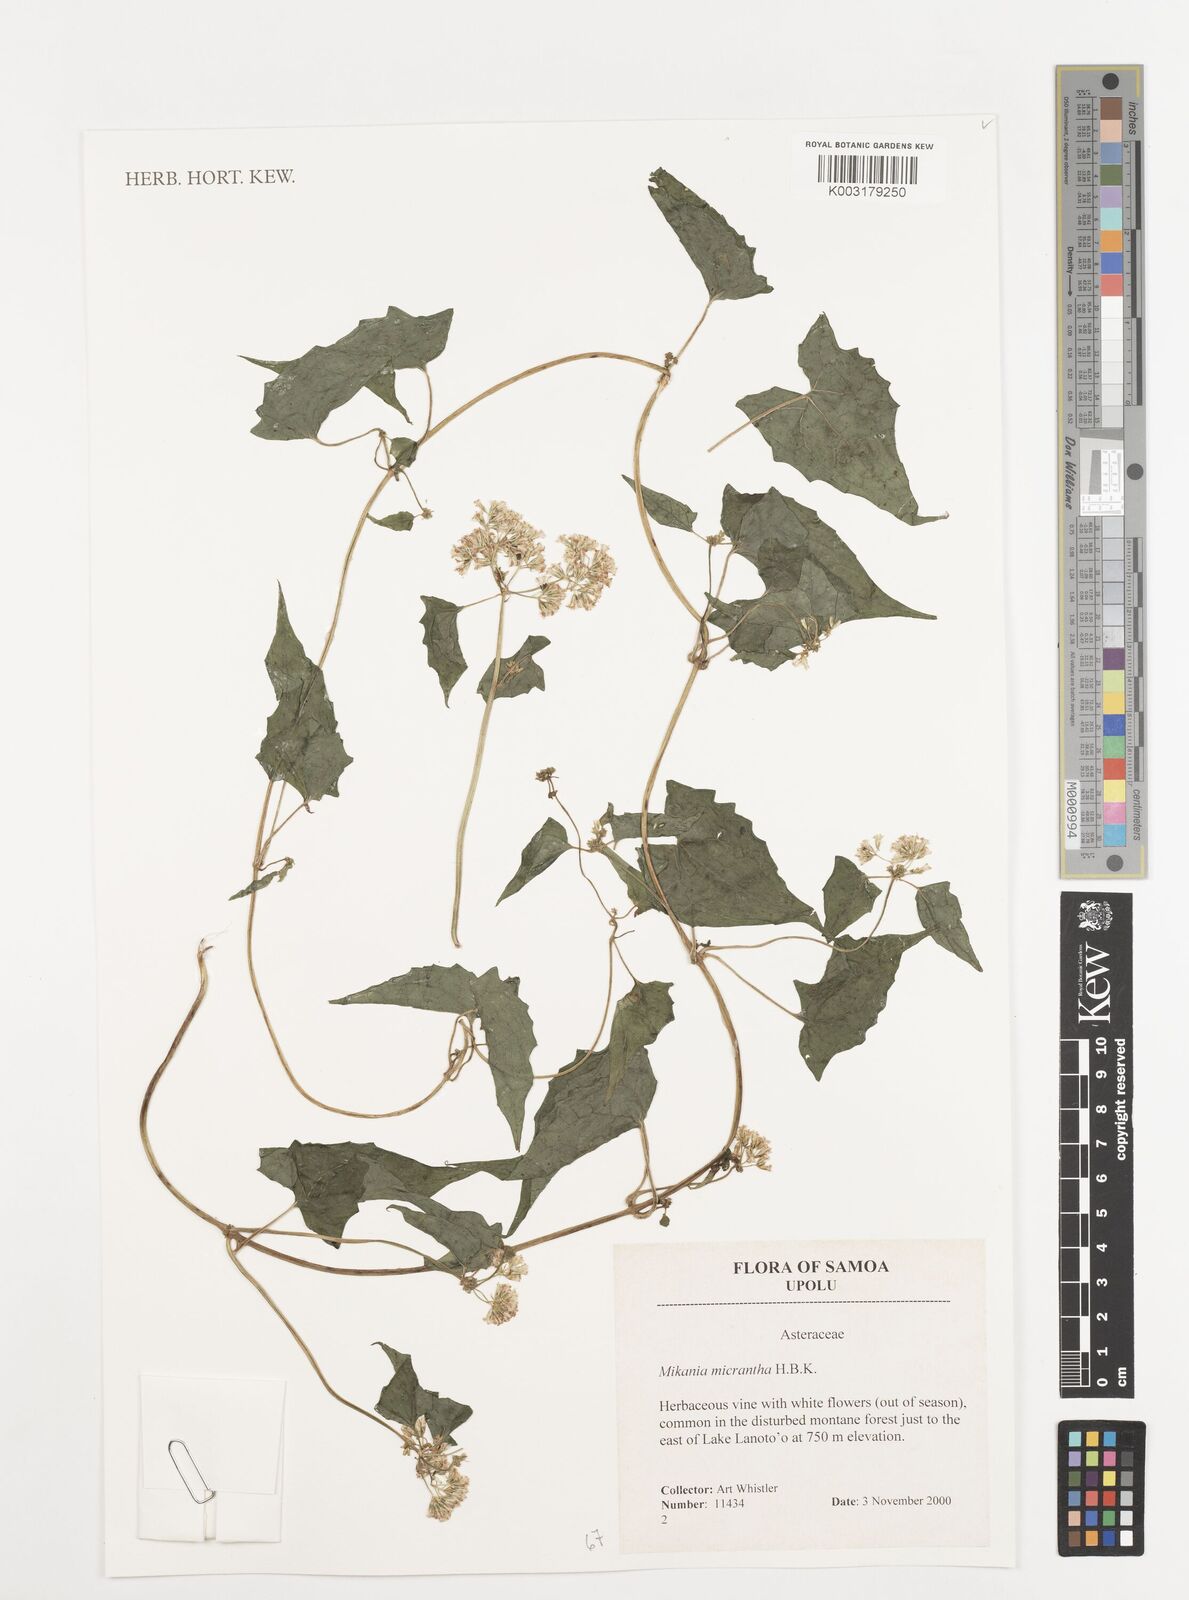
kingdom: Plantae
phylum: Tracheophyta
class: Magnoliopsida
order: Asterales
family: Asteraceae
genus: Mikania
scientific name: Mikania micrantha
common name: Mile-a-minute
